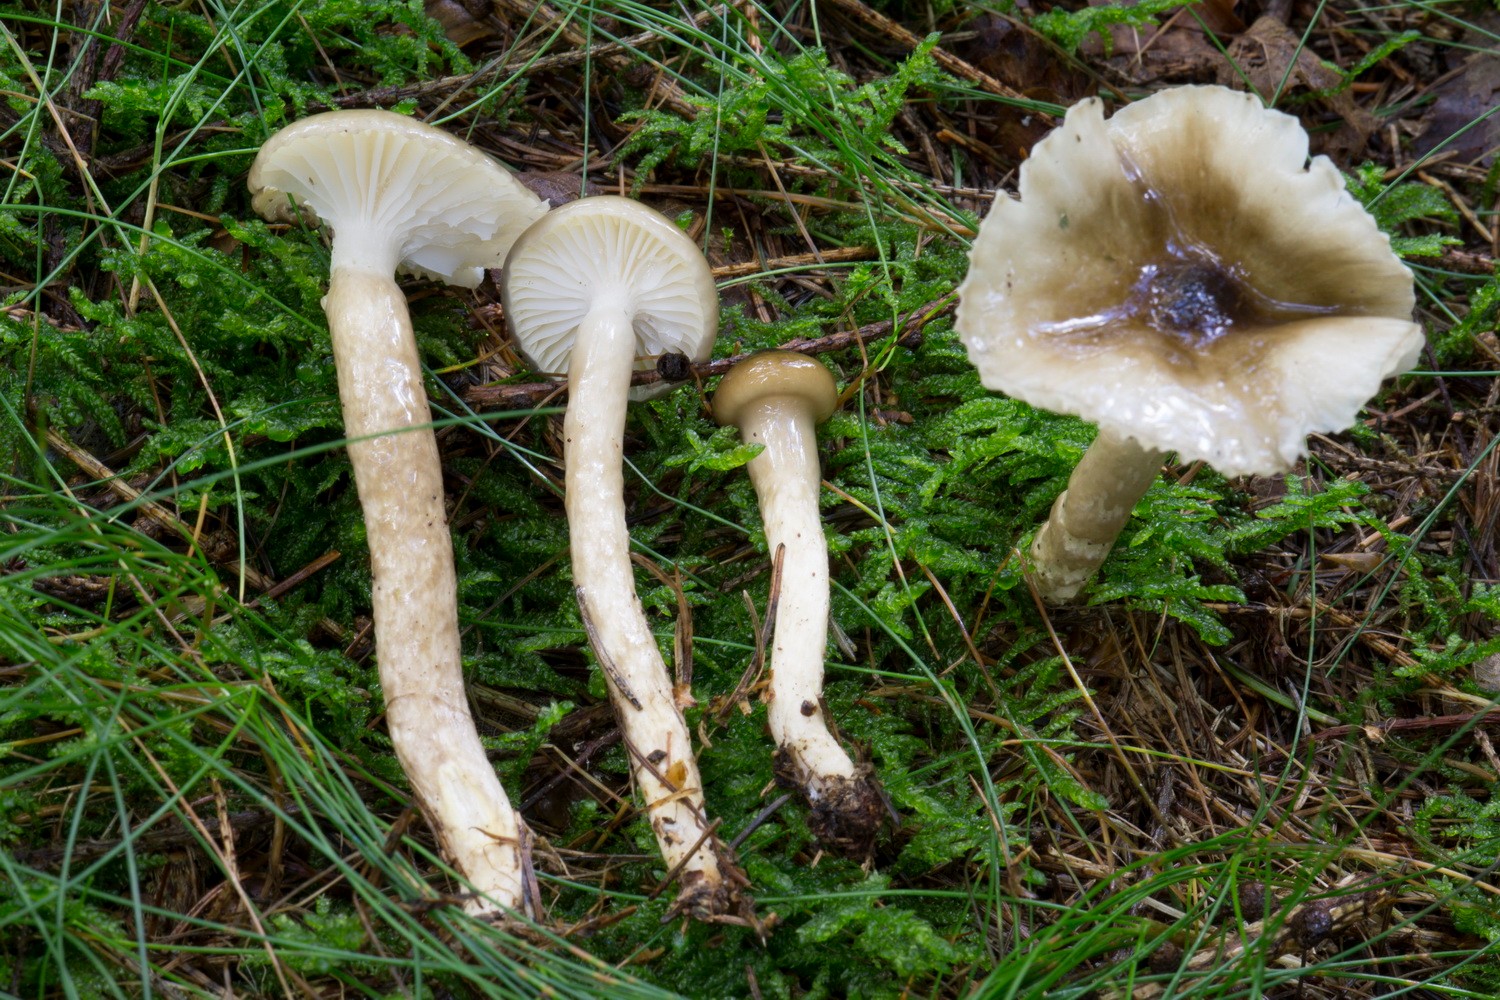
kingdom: Fungi
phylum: Basidiomycota
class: Agaricomycetes
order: Agaricales
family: Hygrophoraceae
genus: Hygrophorus
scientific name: Hygrophorus olivaceoalbus
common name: hvidbrun sneglehat
